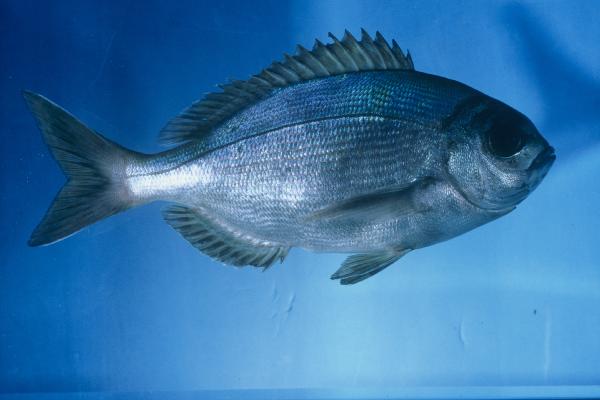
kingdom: Animalia
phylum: Chordata
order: Perciformes
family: Sparidae
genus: Pachymetopon
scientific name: Pachymetopon aeneum
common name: Blue hottentot
